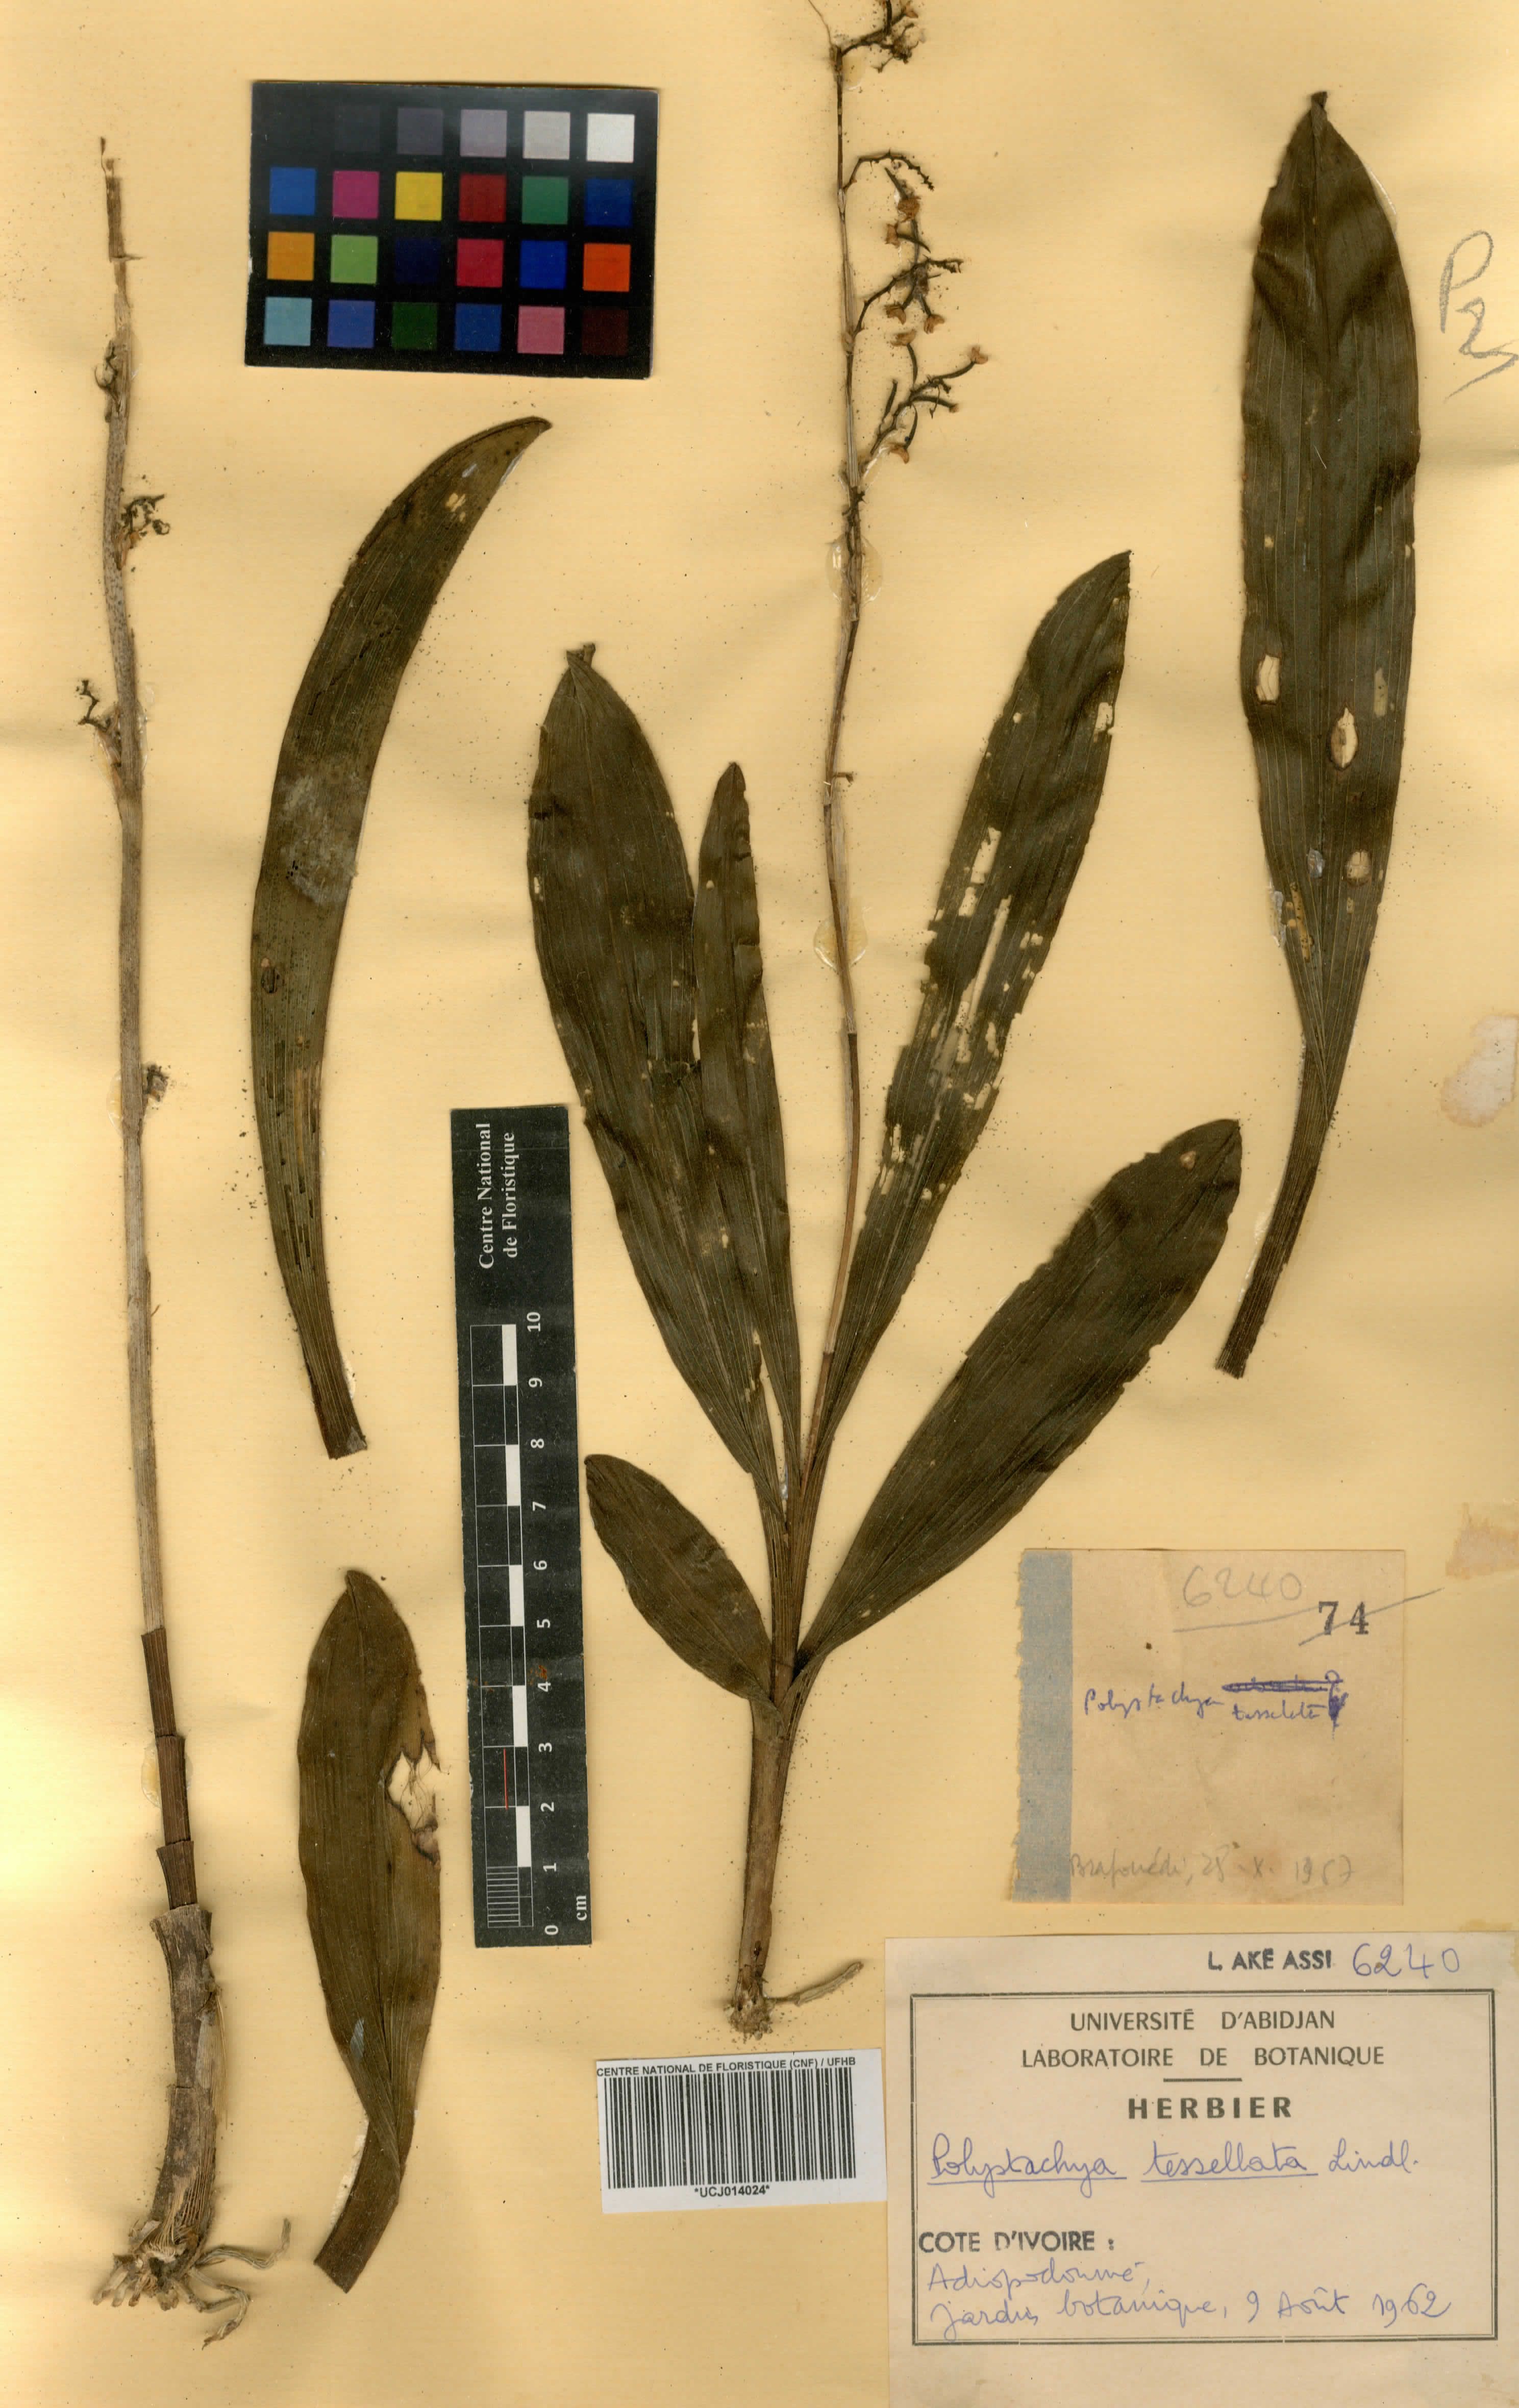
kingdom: Plantae
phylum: Tracheophyta
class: Liliopsida
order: Asparagales
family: Orchidaceae
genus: Polystachya
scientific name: Polystachya concreta
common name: Greater yellowspike orchid
